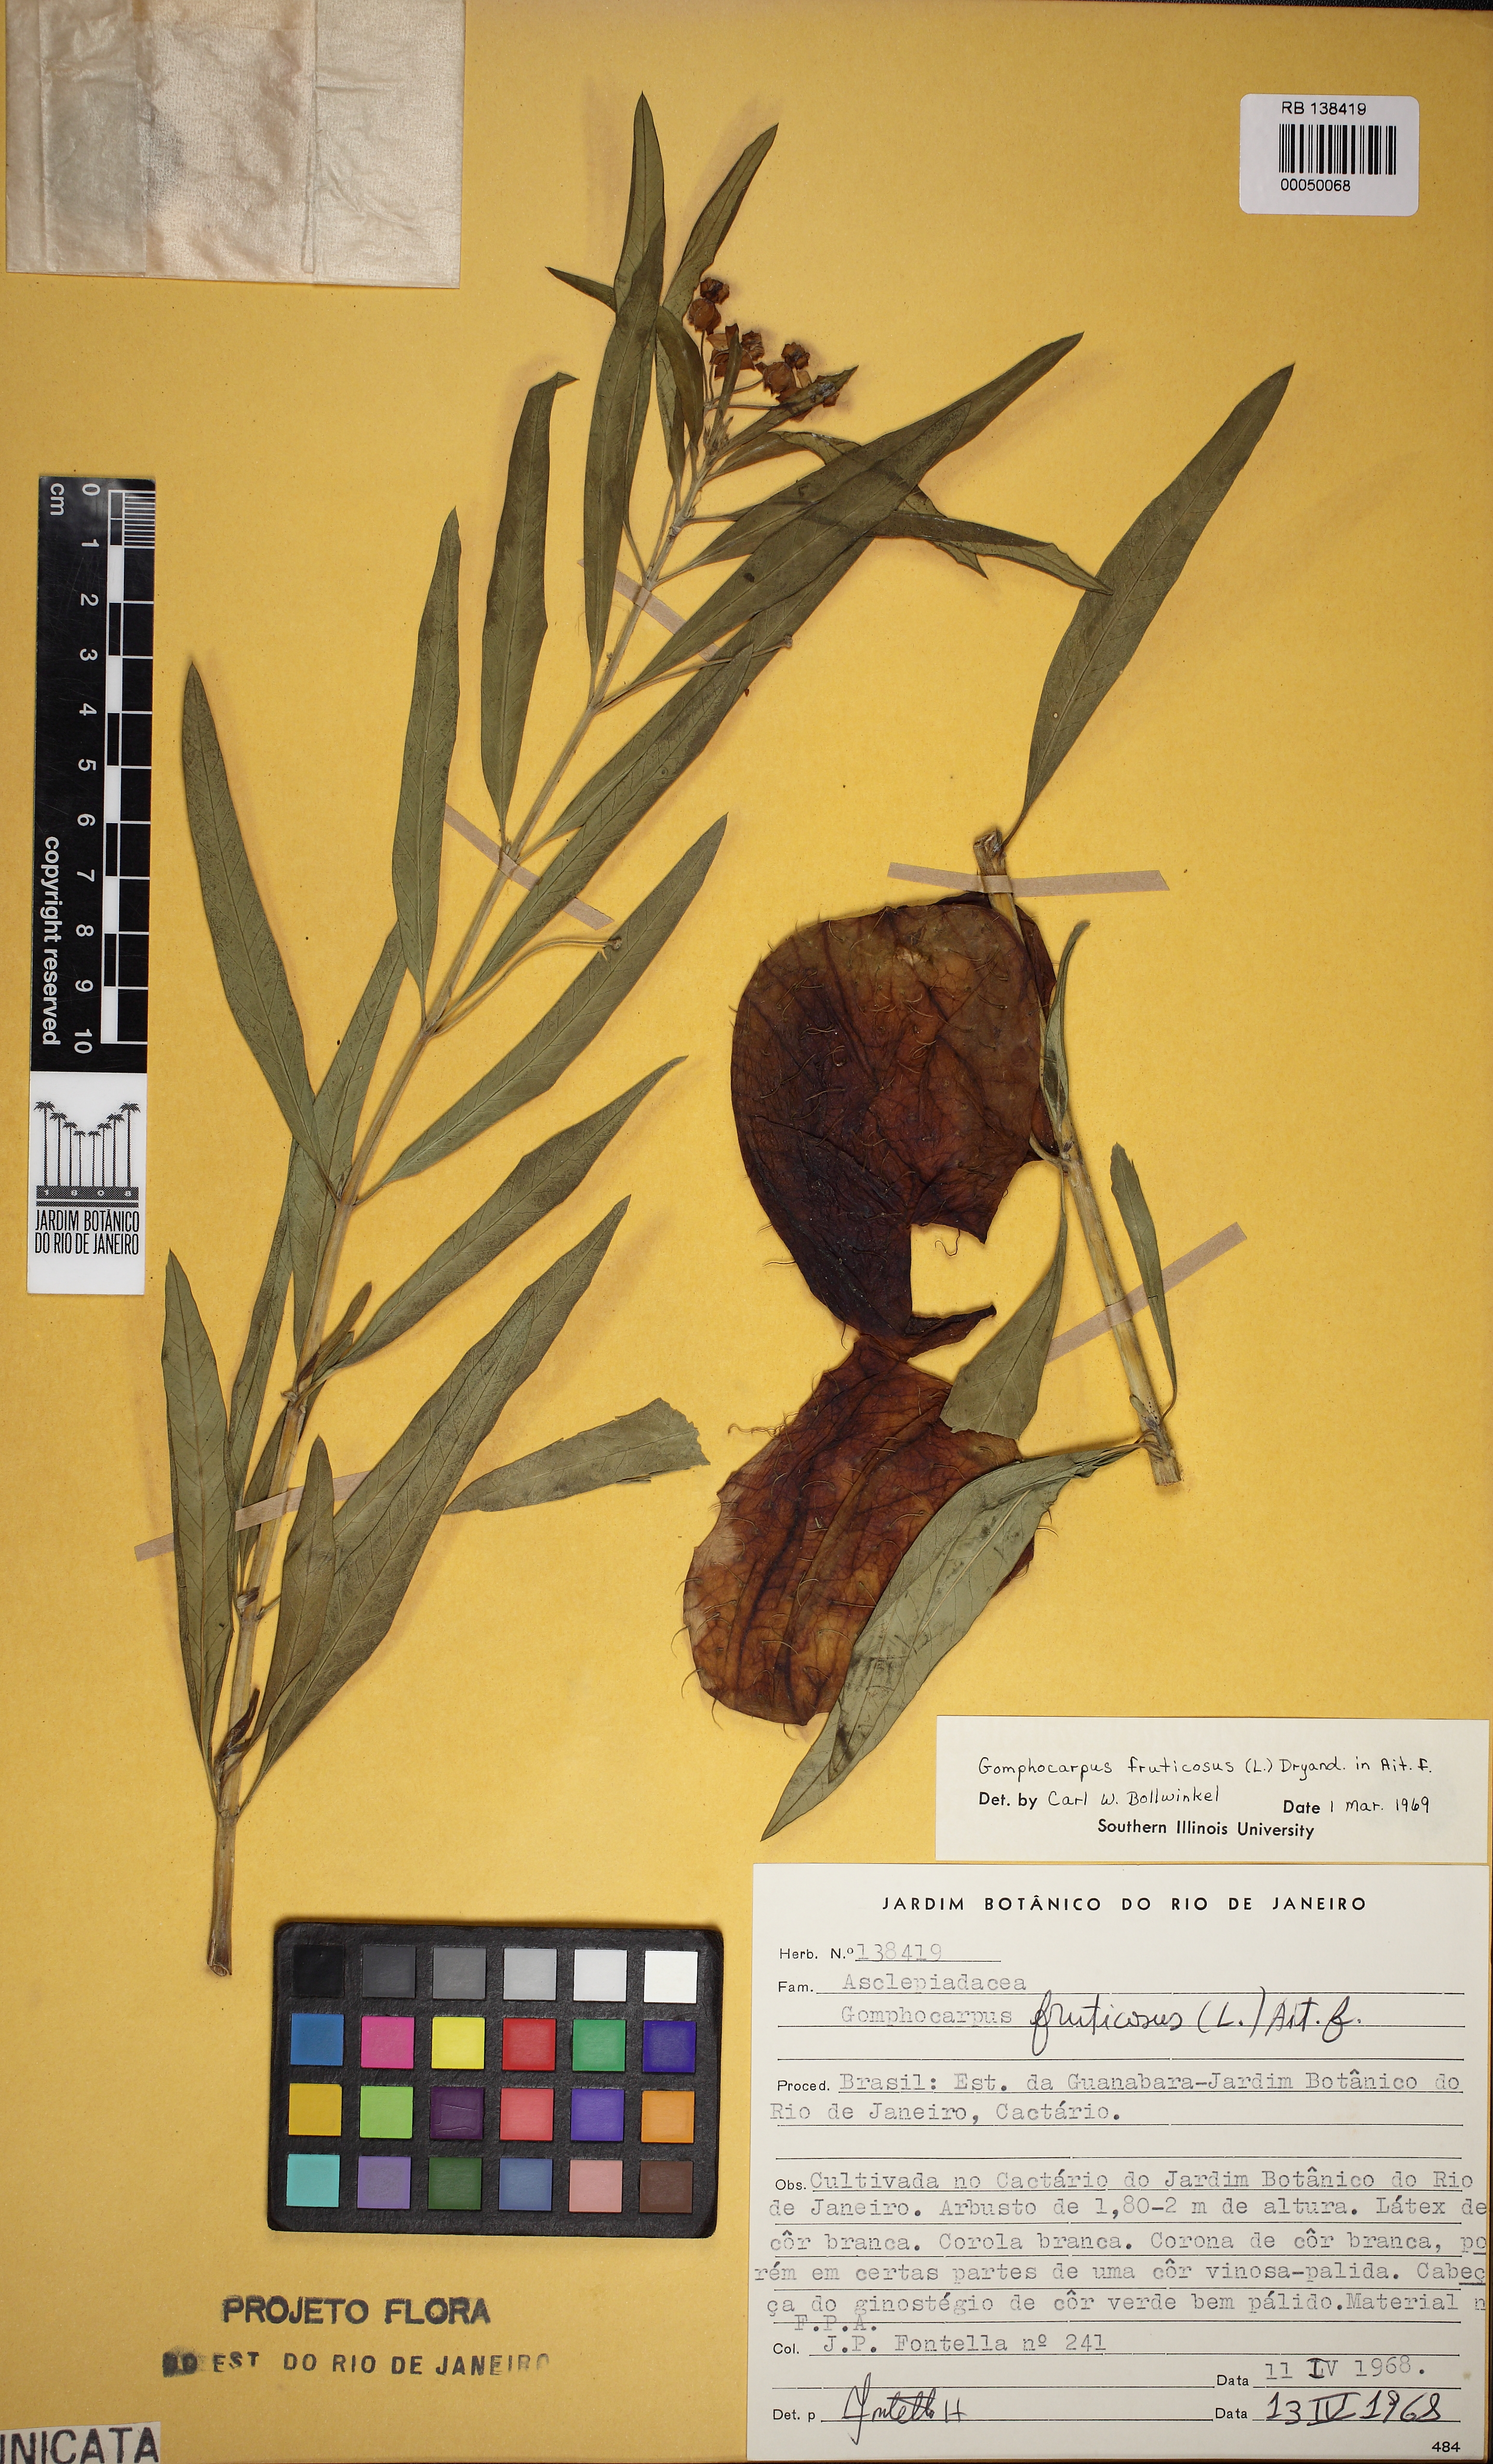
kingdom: Plantae
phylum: Tracheophyta
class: Magnoliopsida
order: Gentianales
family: Apocynaceae
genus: Gomphocarpus
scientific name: Gomphocarpus fruticosus
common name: Milkweed
